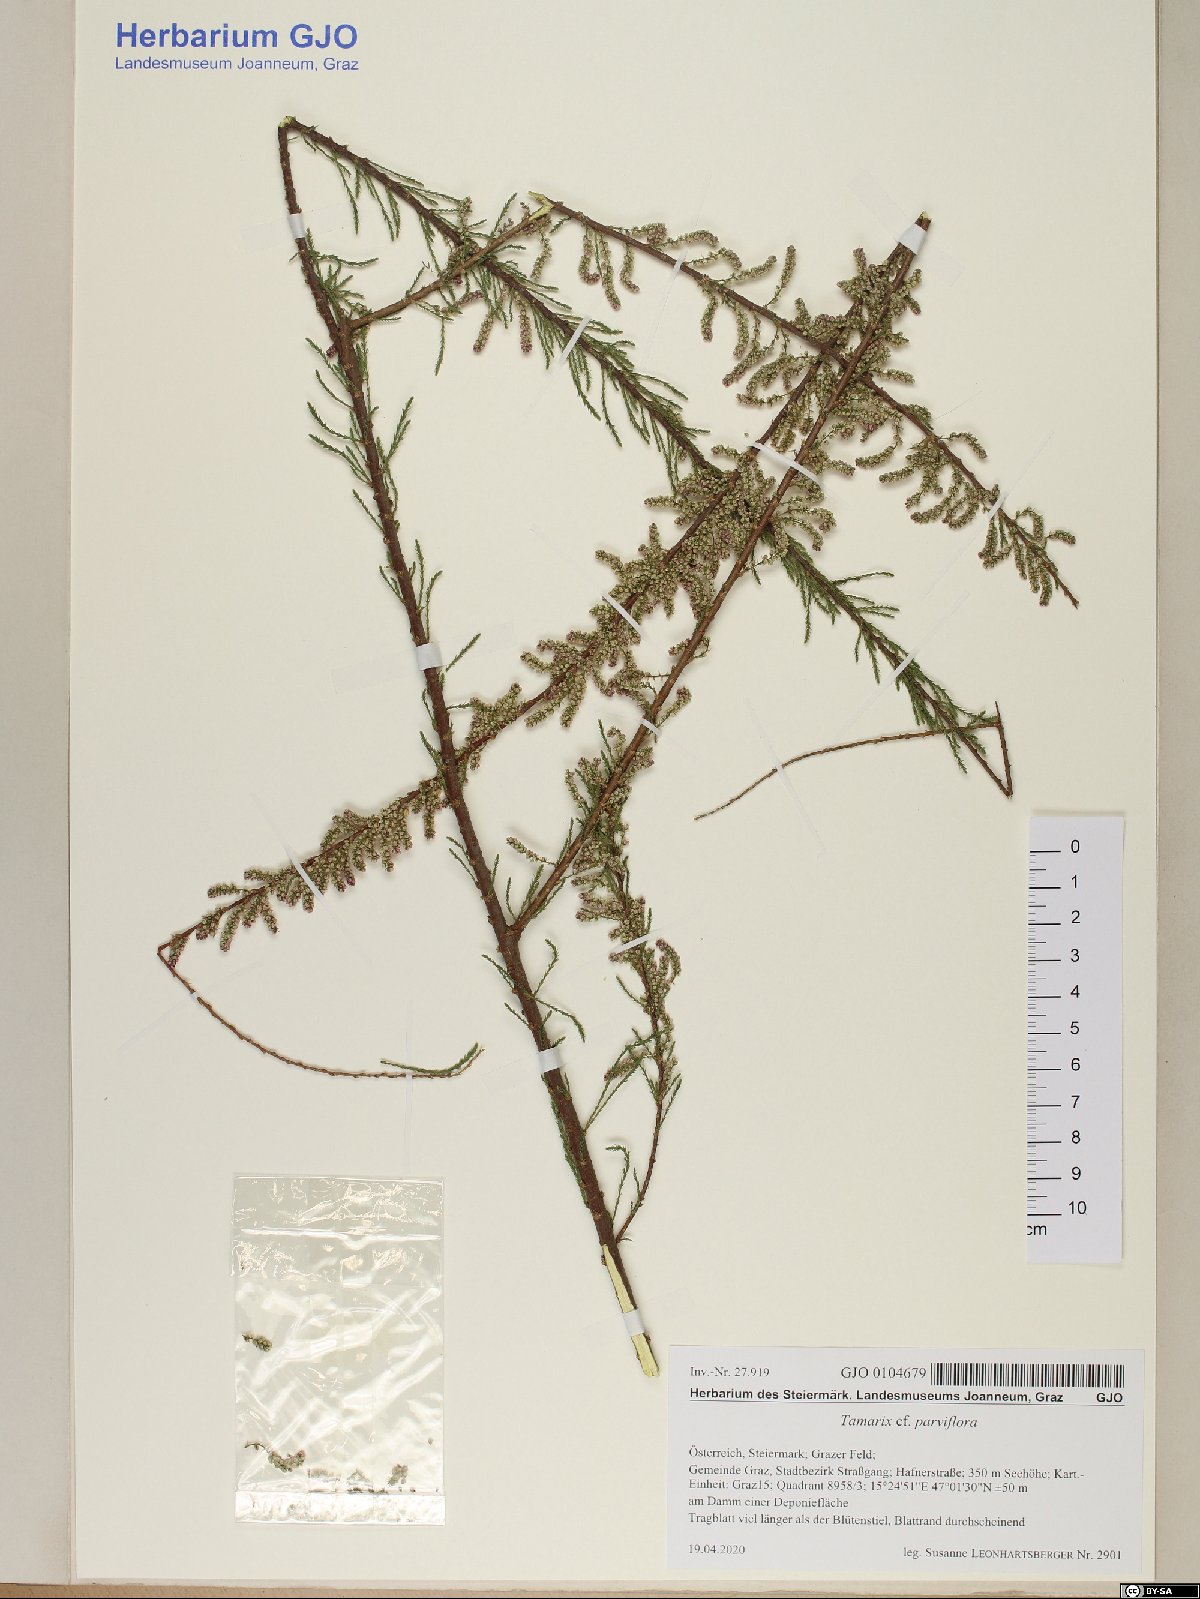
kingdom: Plantae
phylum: Tracheophyta
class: Magnoliopsida
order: Caryophyllales
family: Tamaricaceae
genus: Tamarix
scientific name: Tamarix parviflora
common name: Smallflower tamarisk
